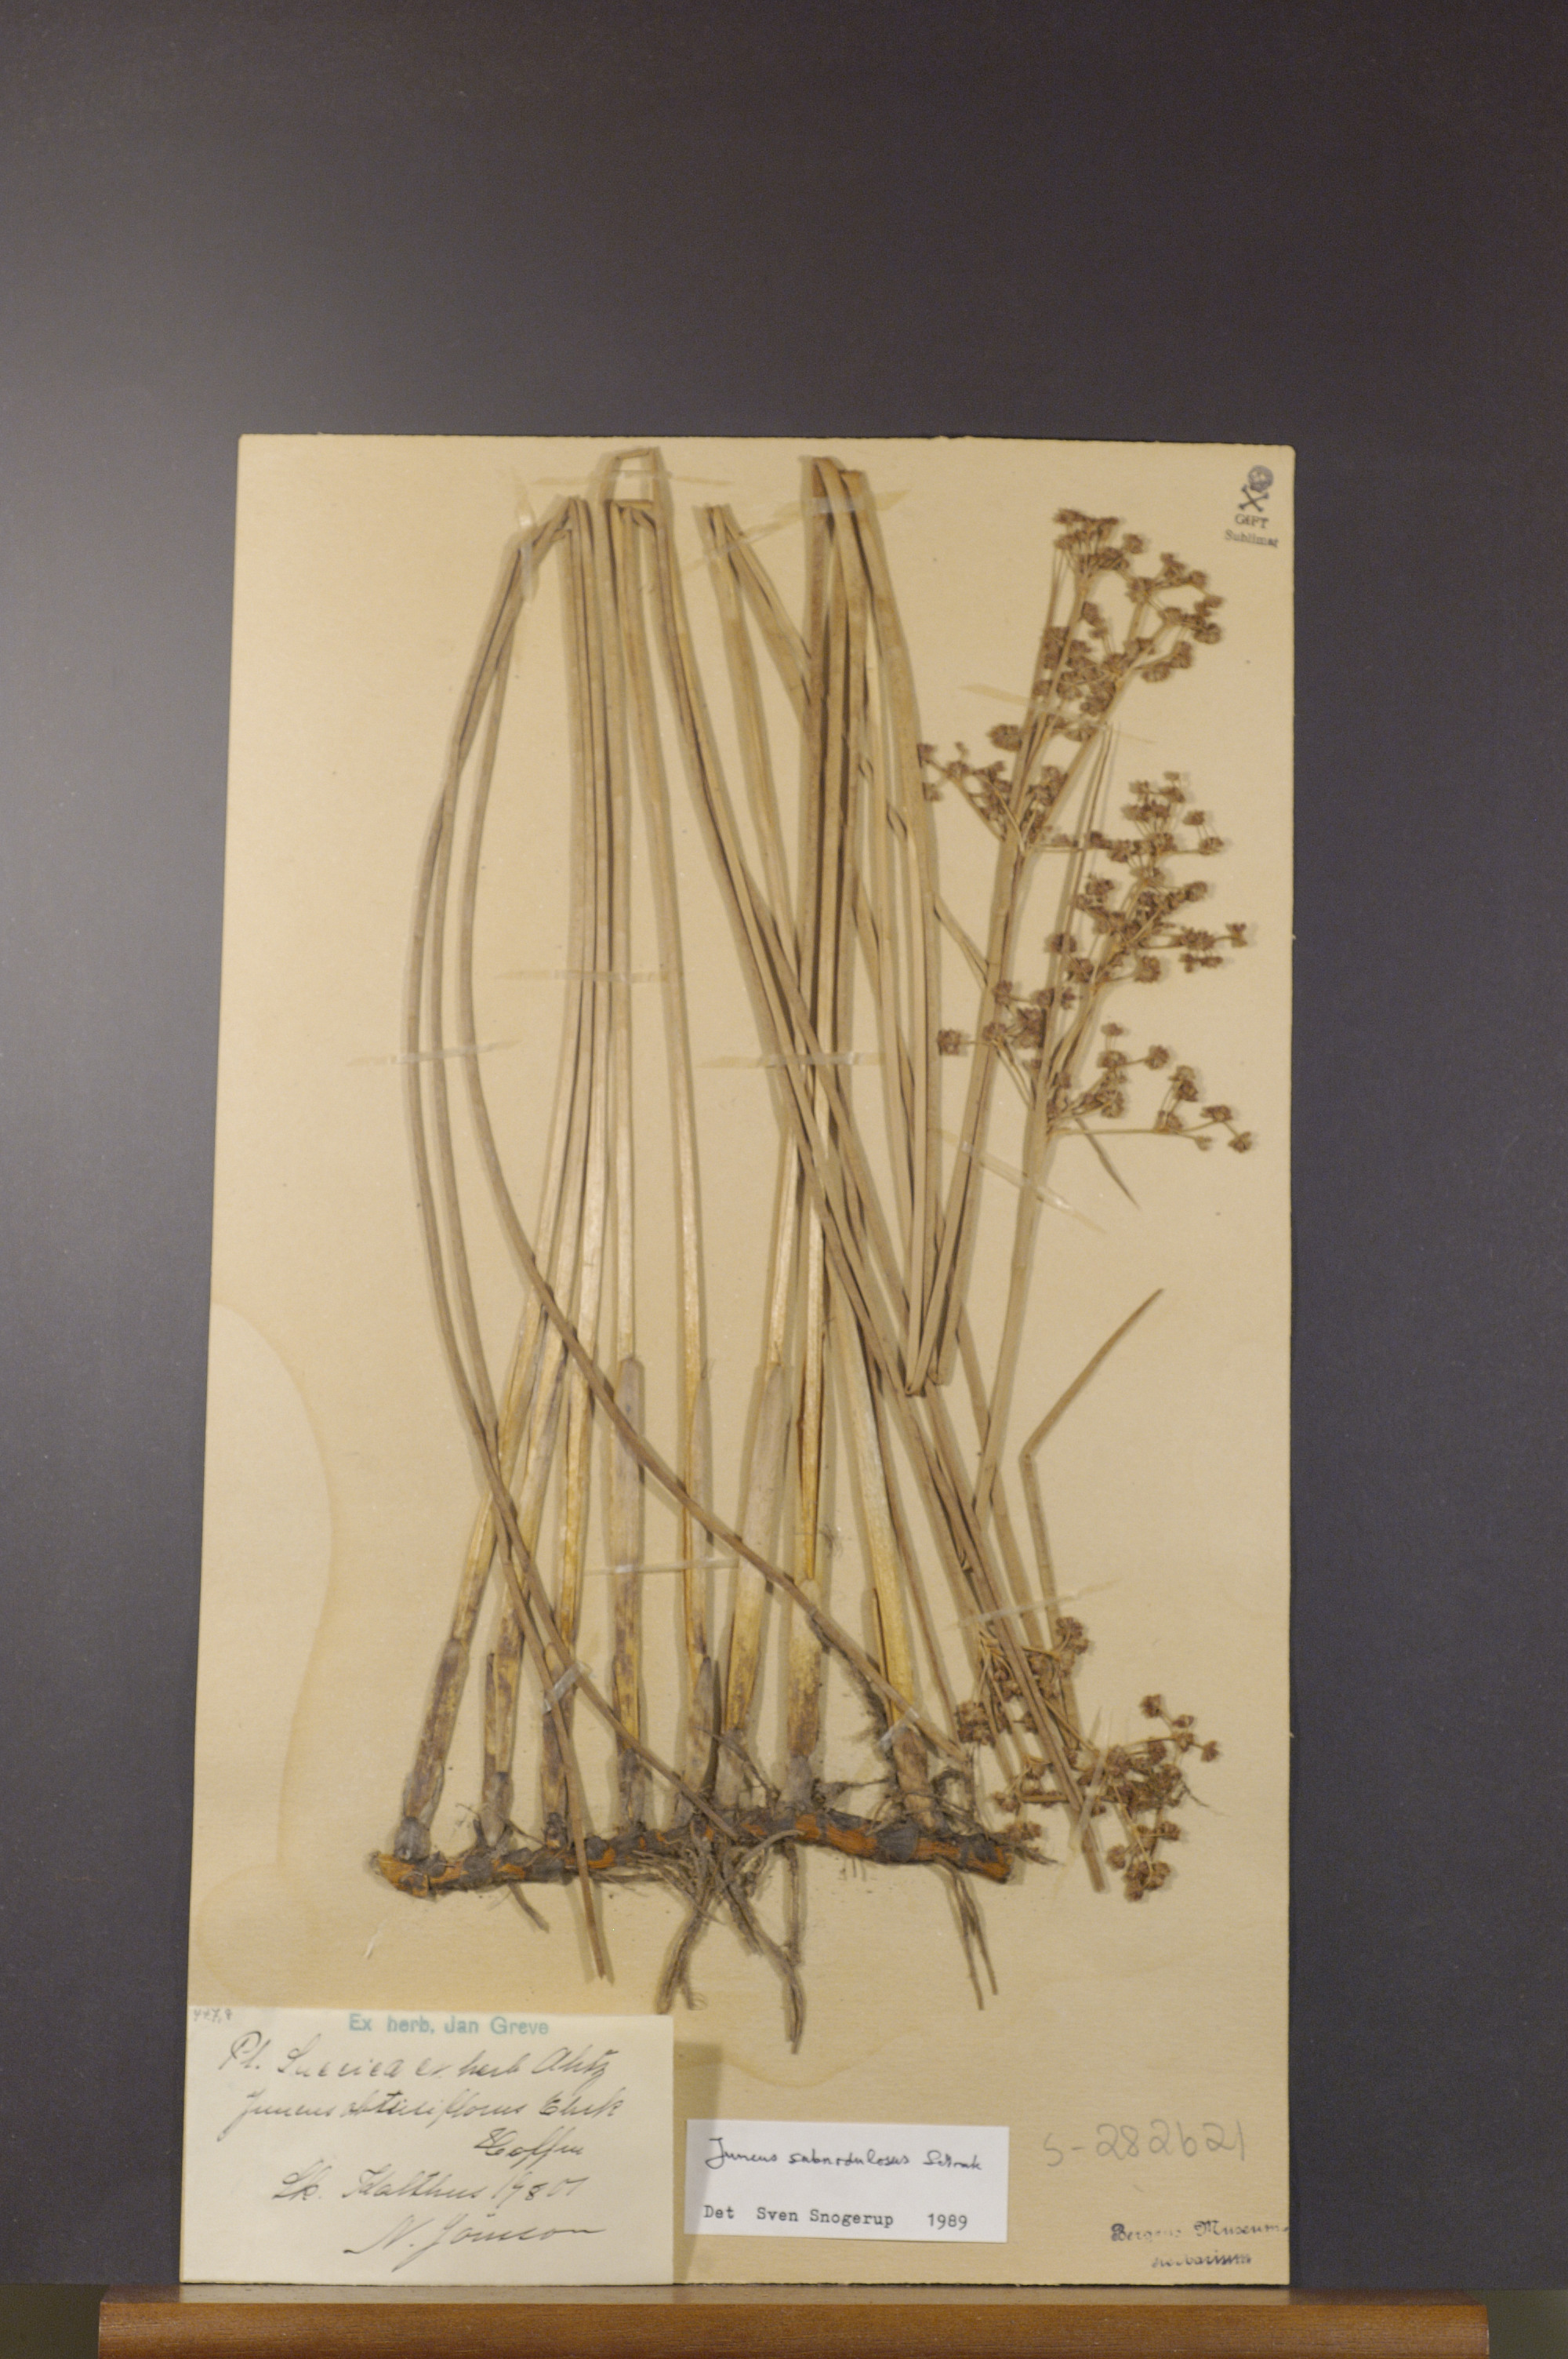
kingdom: Plantae
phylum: Tracheophyta
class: Liliopsida
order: Poales
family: Juncaceae
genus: Juncus
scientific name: Juncus subnodulosus
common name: Blunt-flowered rush
